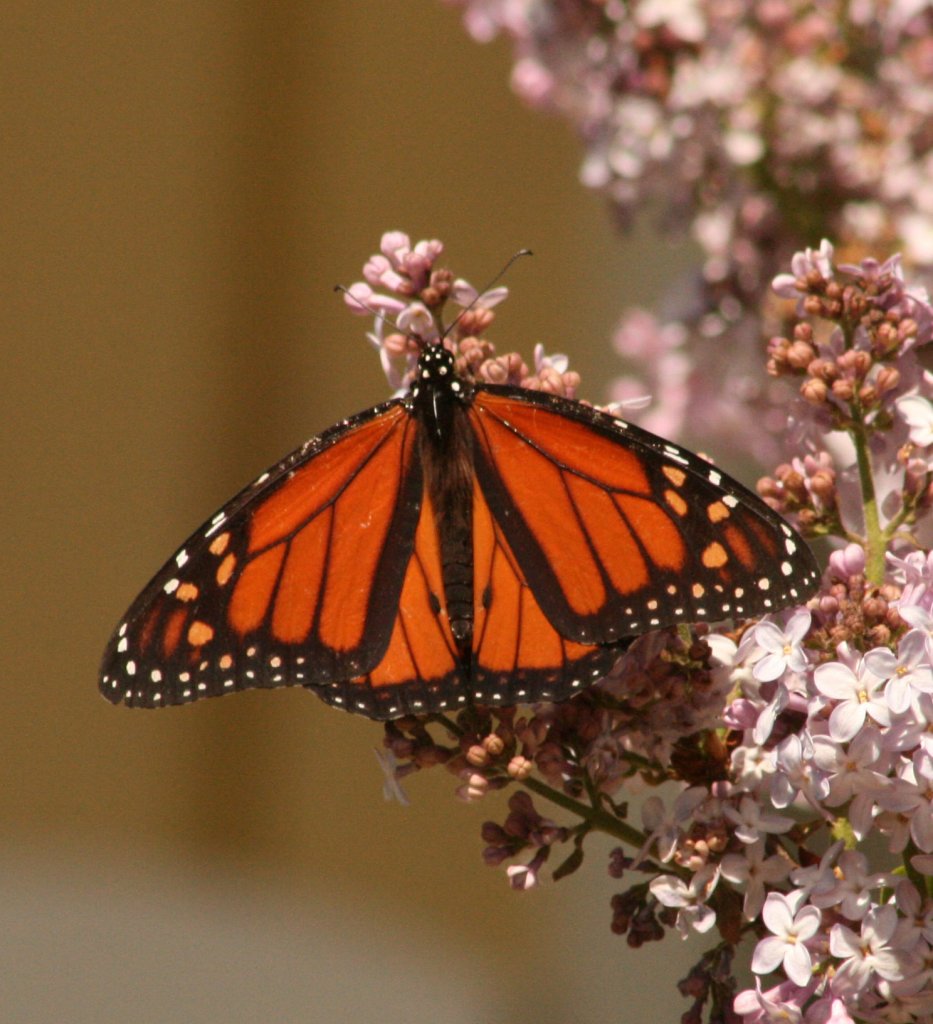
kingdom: Animalia
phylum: Arthropoda
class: Insecta
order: Lepidoptera
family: Nymphalidae
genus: Danaus
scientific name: Danaus plexippus
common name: Monarch
